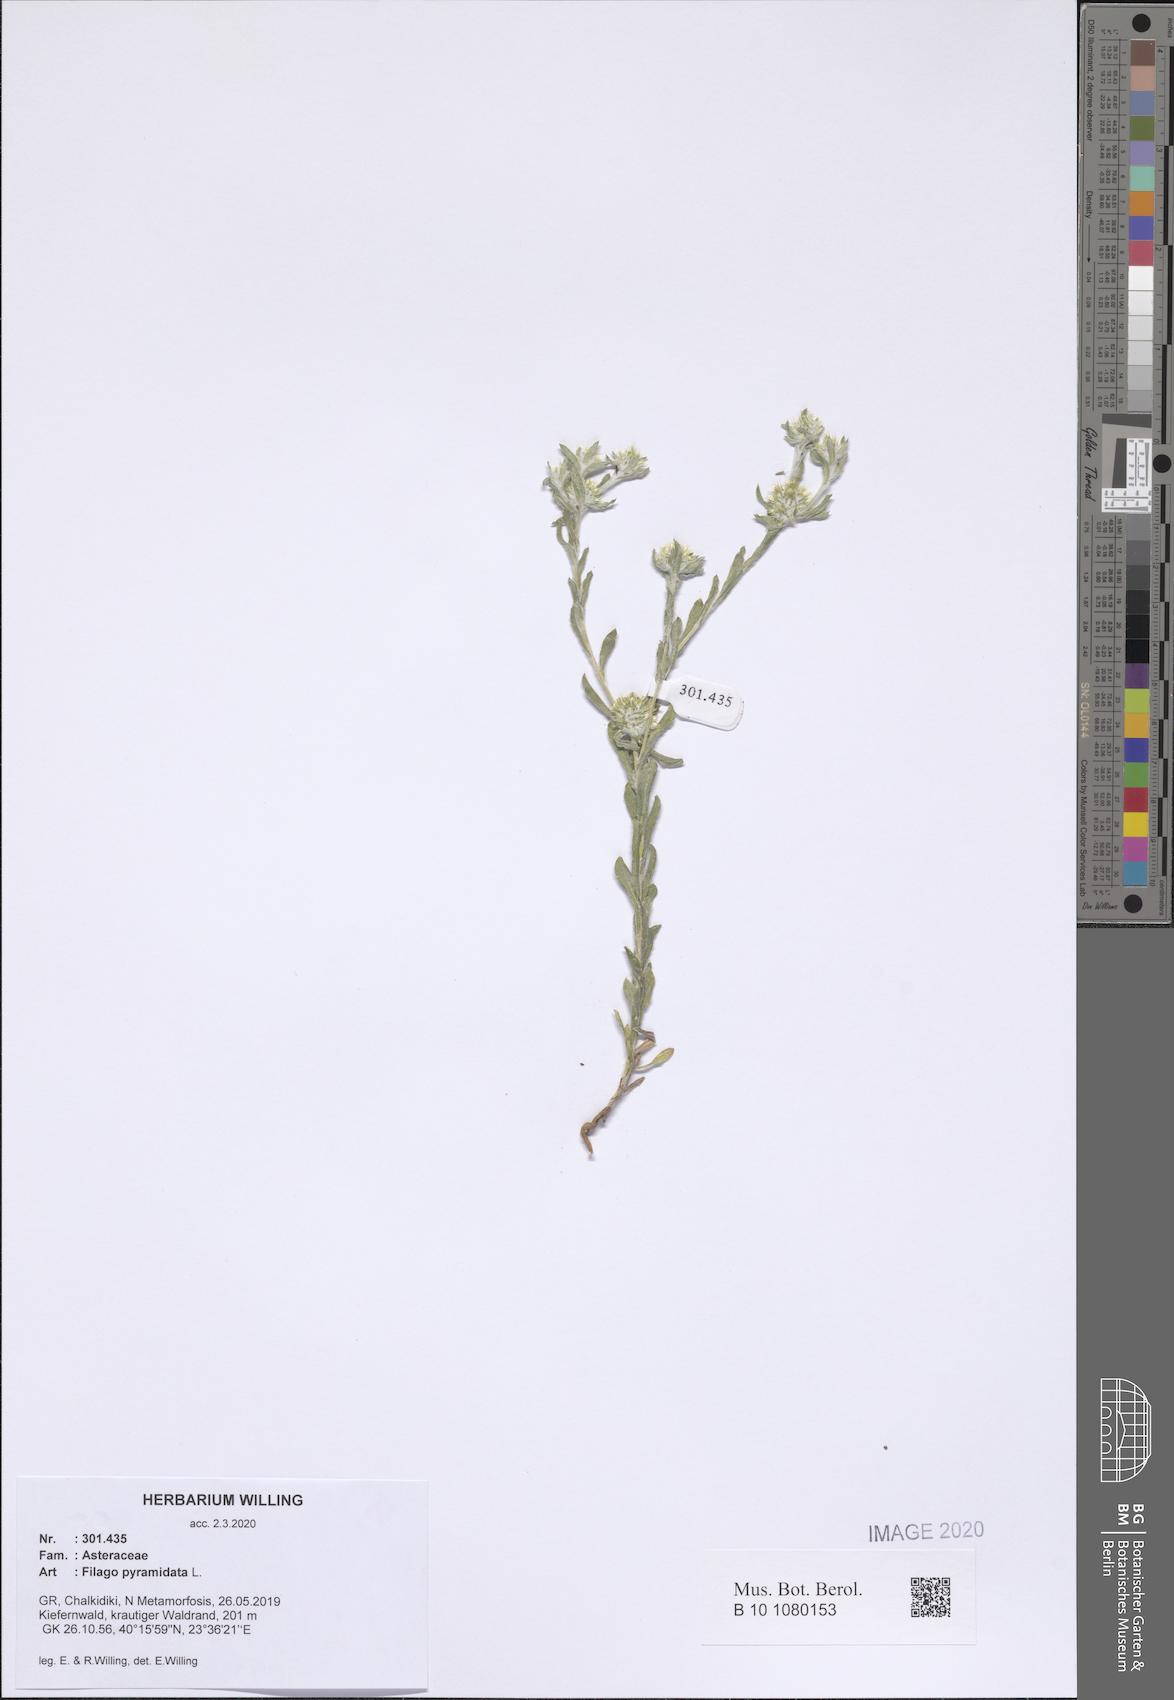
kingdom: Plantae
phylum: Tracheophyta
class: Magnoliopsida
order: Asterales
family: Asteraceae
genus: Filago
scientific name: Filago pyramidata
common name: Broad-leaved cudweed
